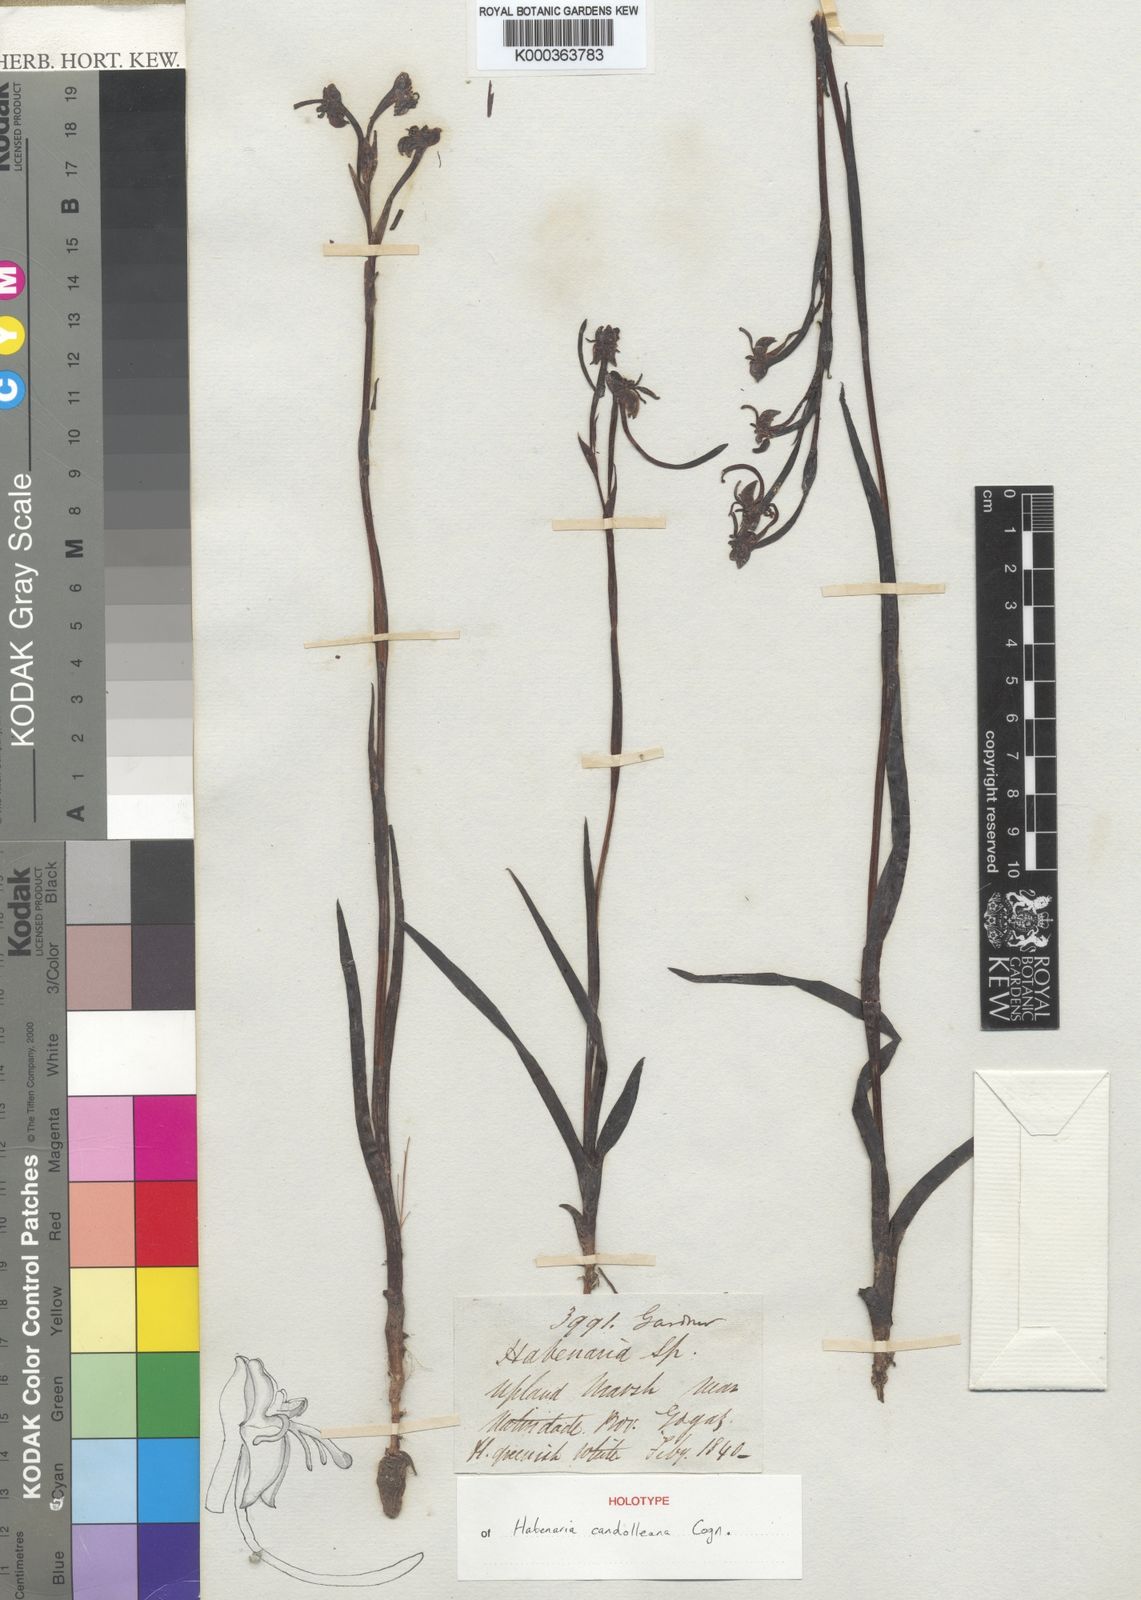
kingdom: Plantae
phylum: Tracheophyta
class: Liliopsida
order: Asparagales
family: Orchidaceae
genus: Habenaria
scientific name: Habenaria candolleana
